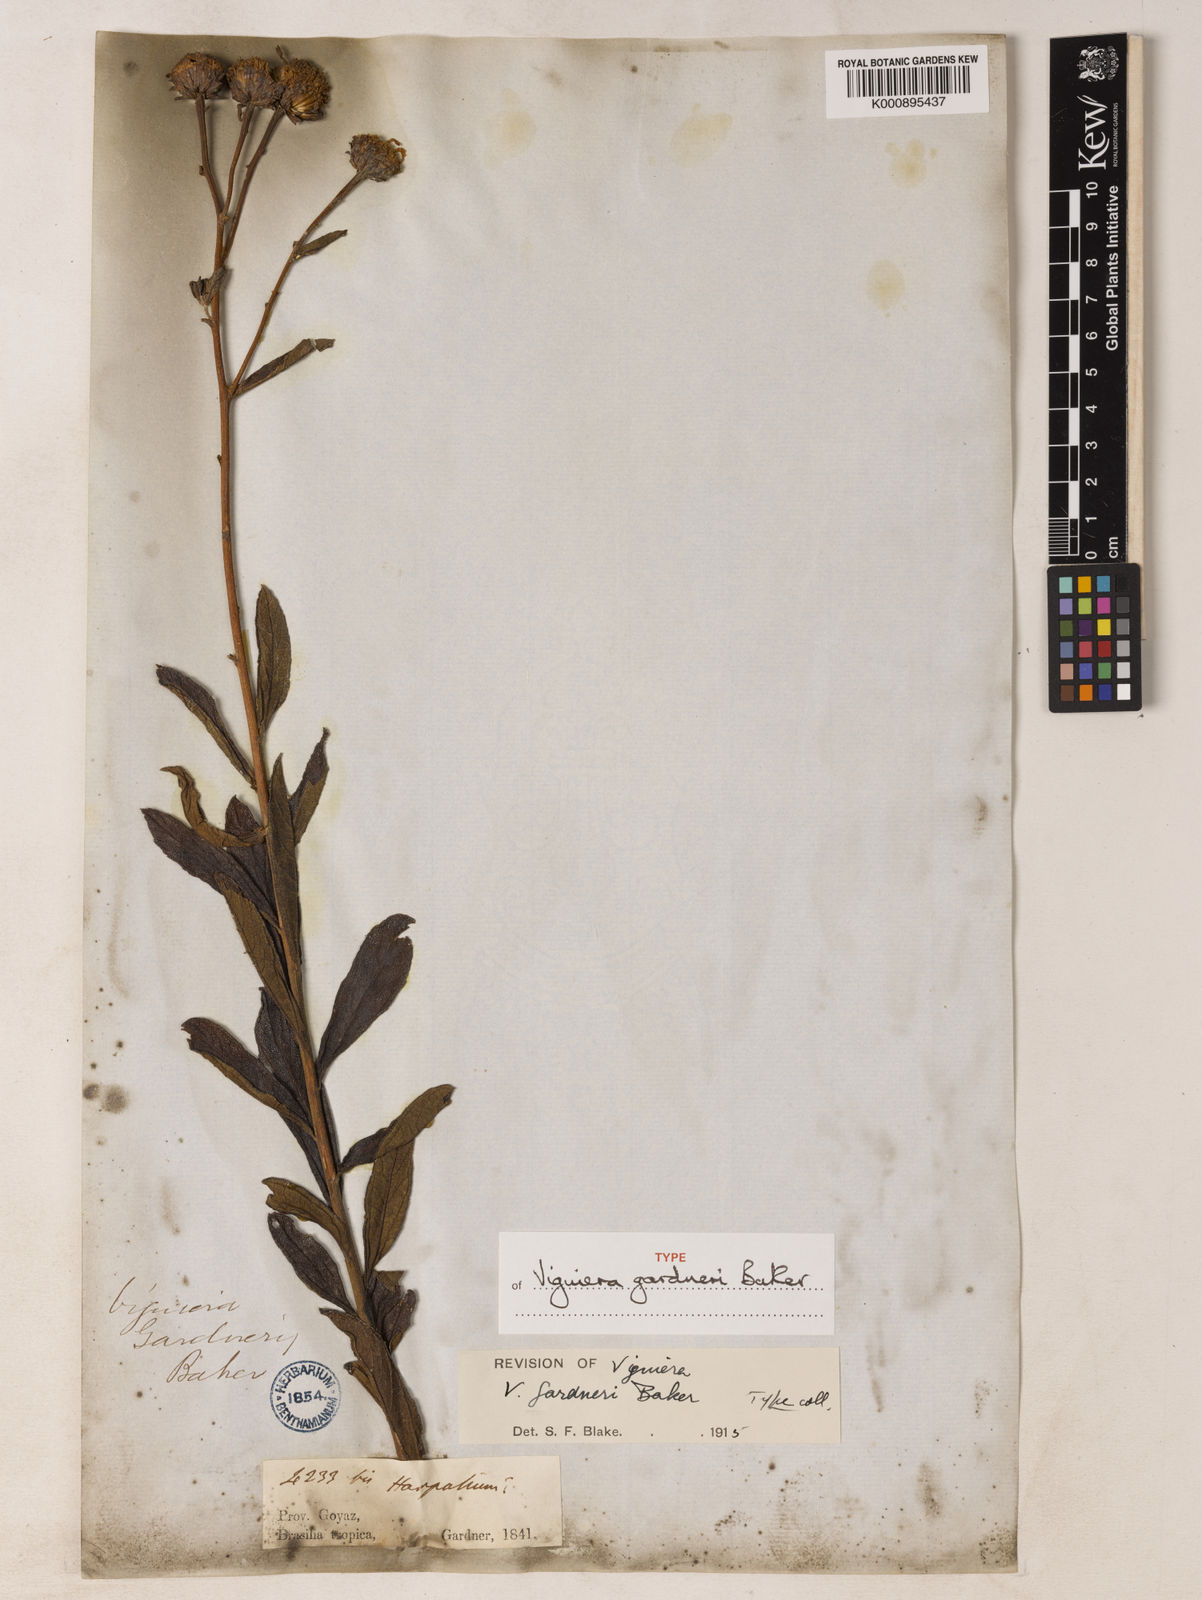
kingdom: Plantae
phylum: Tracheophyta
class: Magnoliopsida
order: Asterales
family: Asteraceae
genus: Aldama
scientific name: Aldama gardneri
